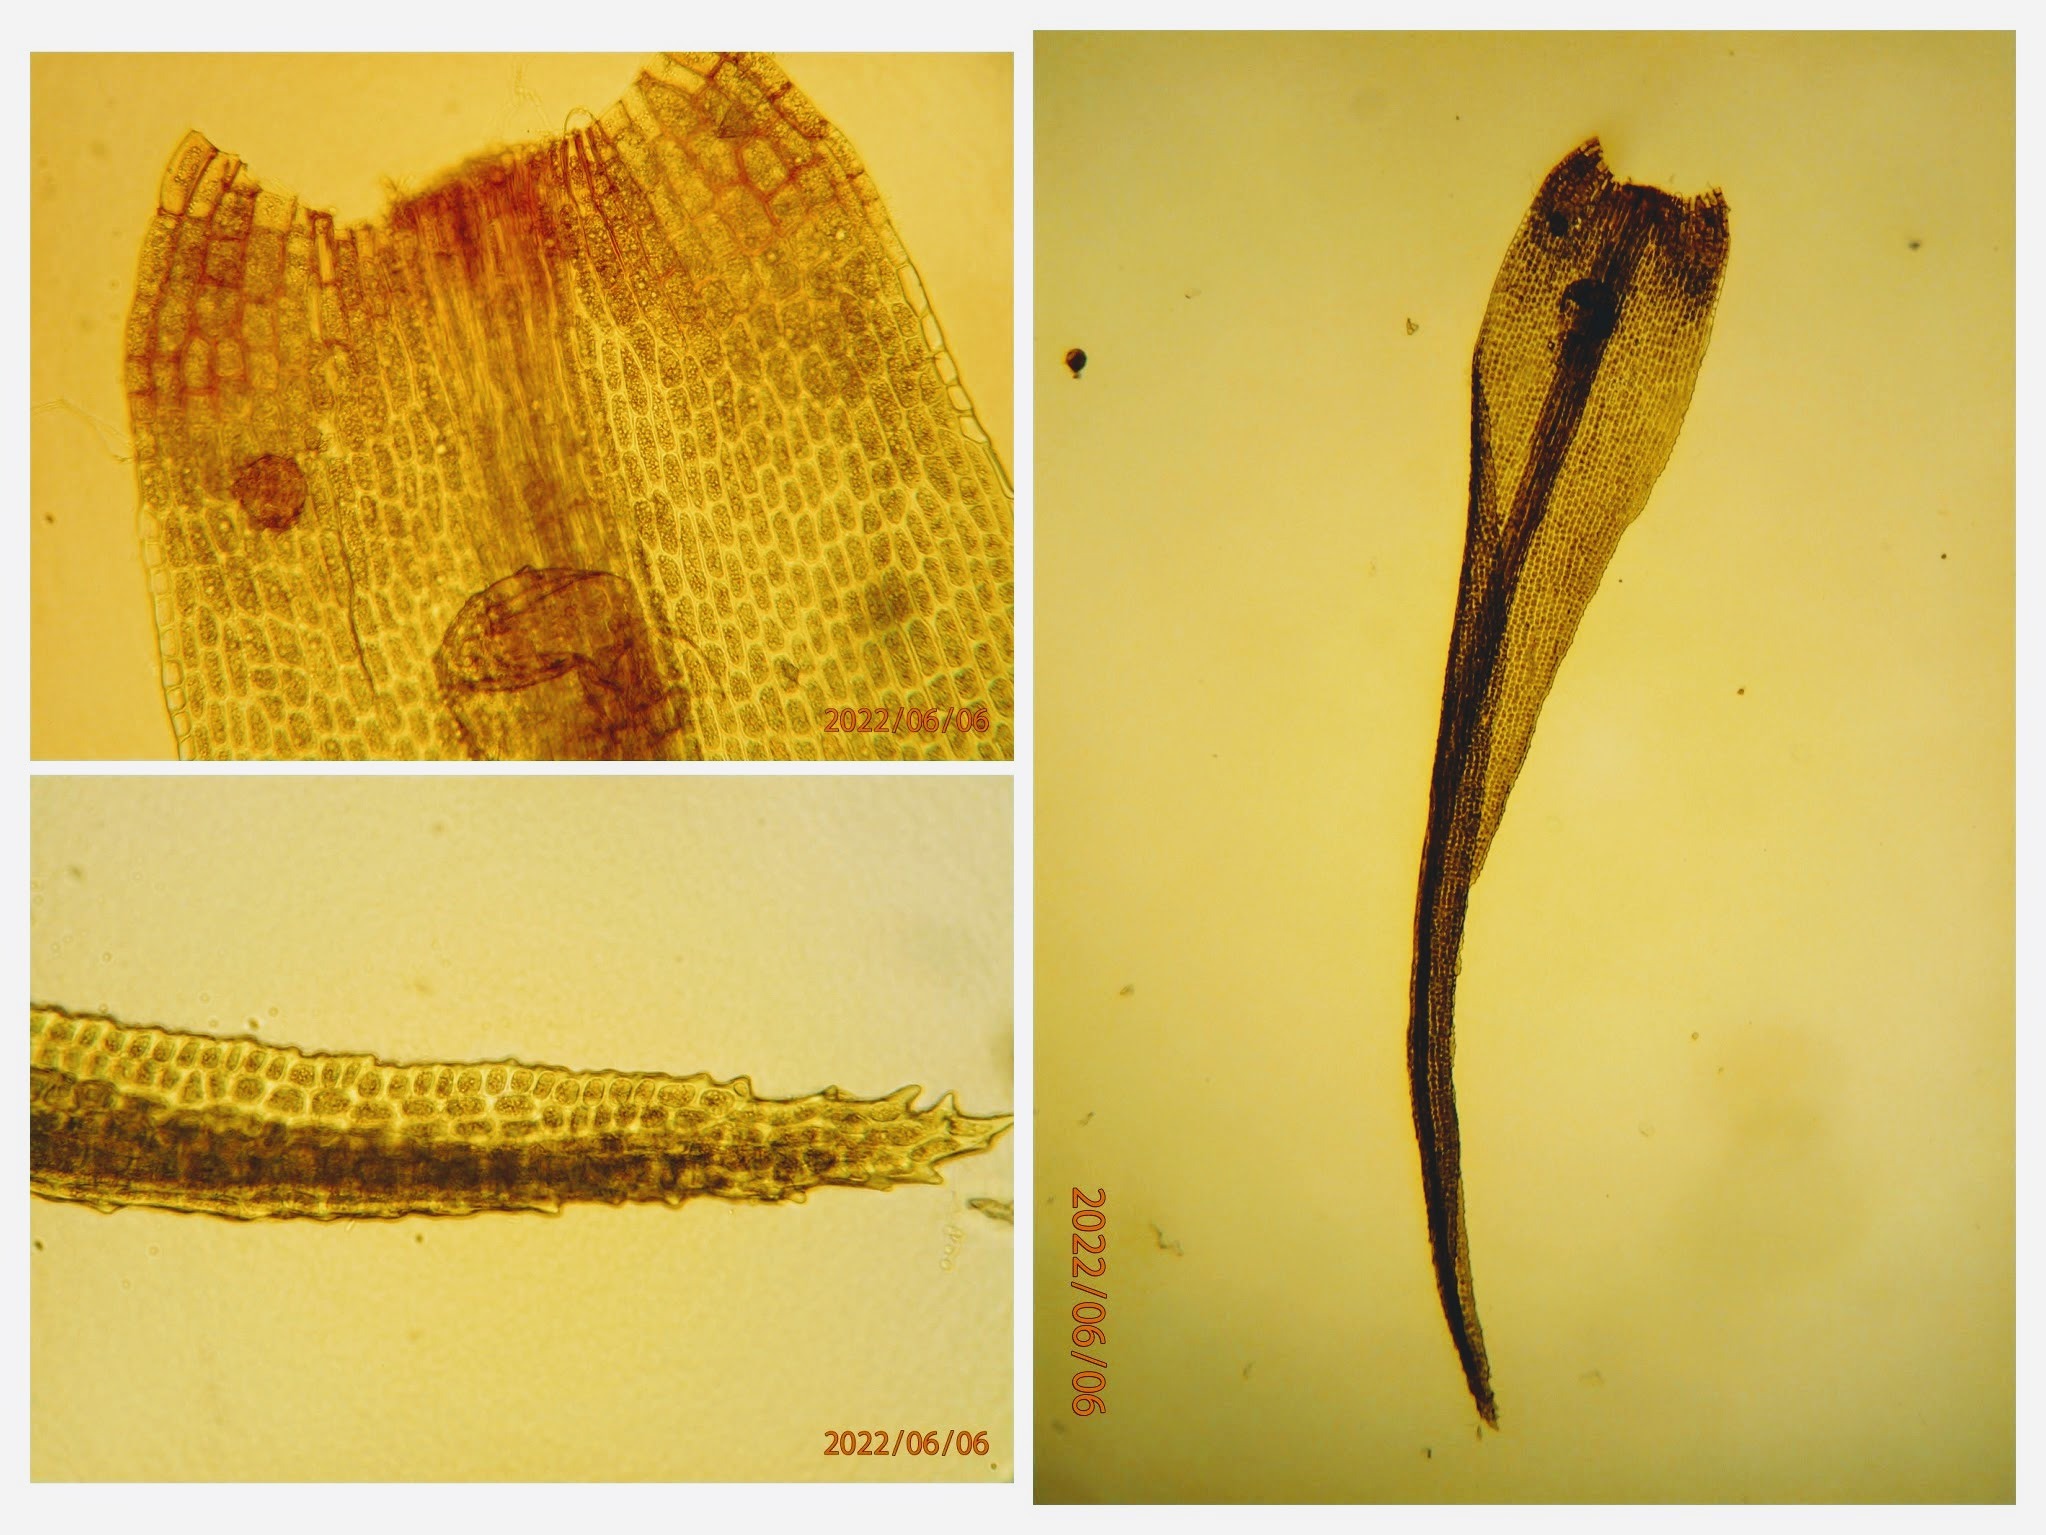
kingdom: Plantae
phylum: Bryophyta
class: Bryopsida
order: Dicranales
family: Dicranaceae
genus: Orthodicranum
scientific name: Orthodicranum montanum
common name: Tæt tyndvinge
